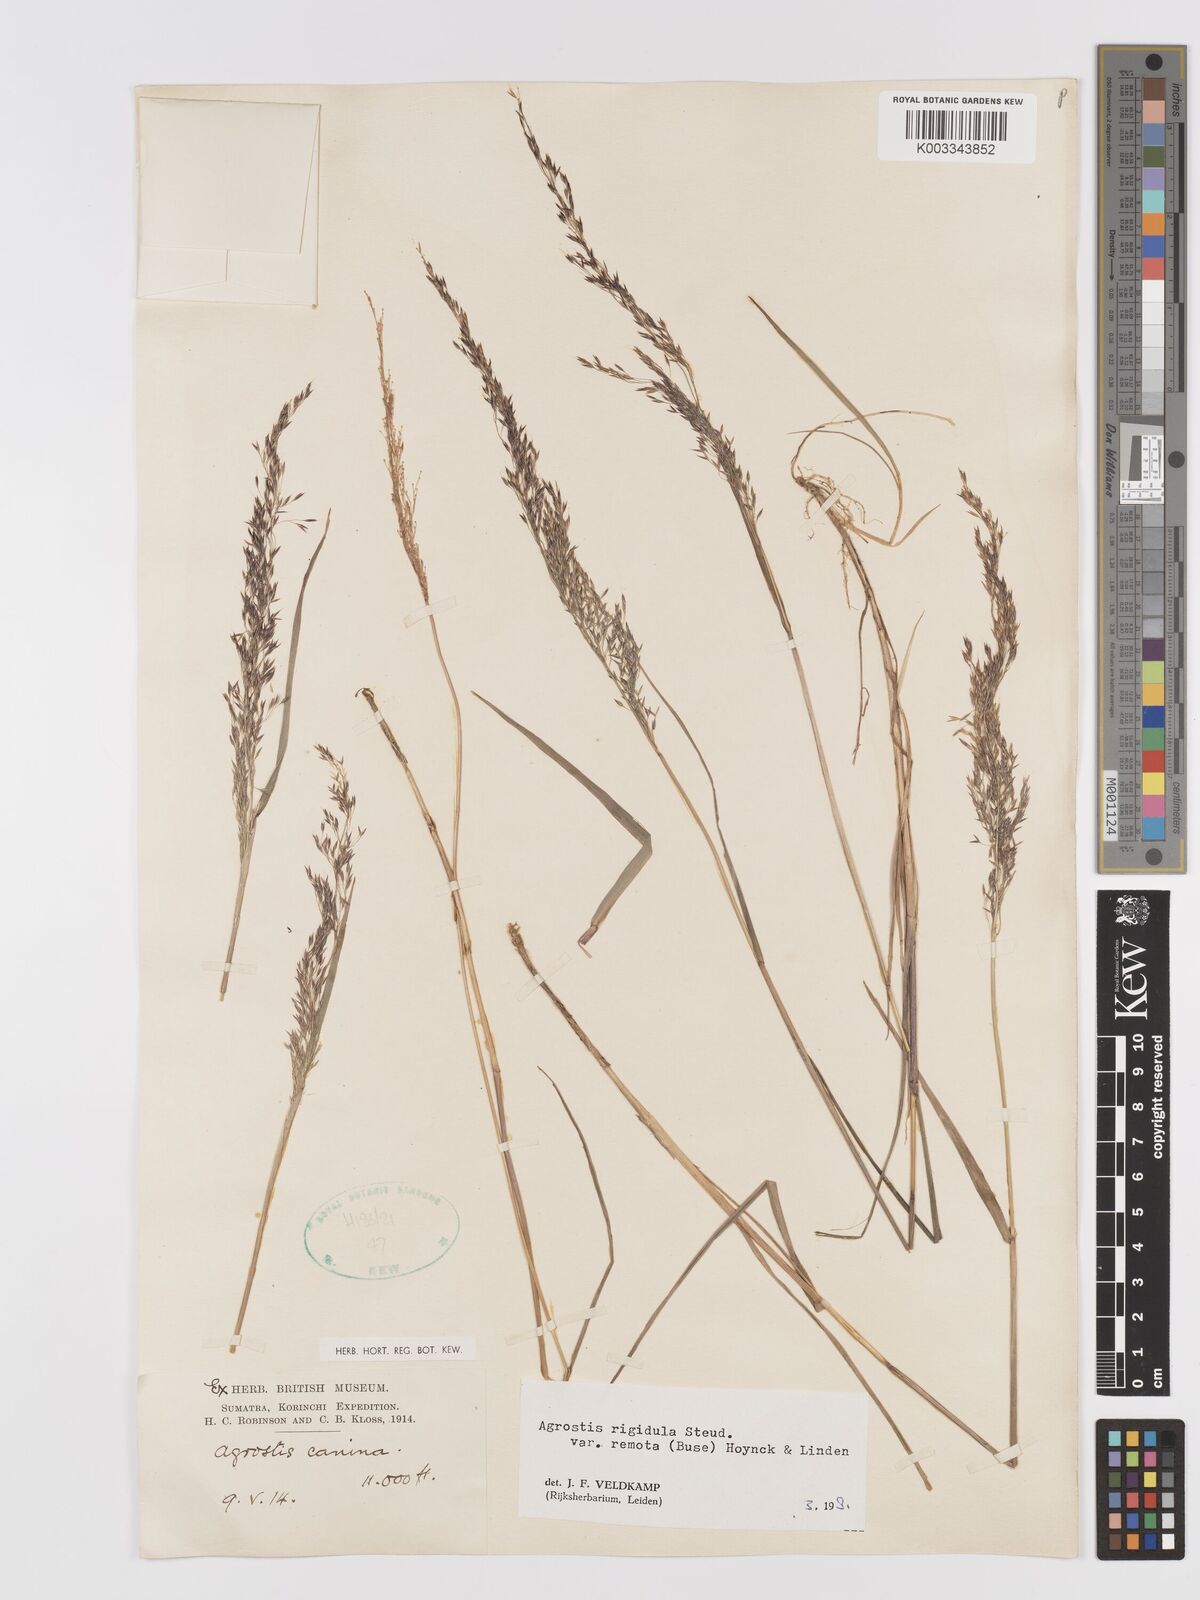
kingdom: Plantae
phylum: Tracheophyta
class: Liliopsida
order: Poales
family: Poaceae
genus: Agrostis
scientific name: Agrostis infirma
